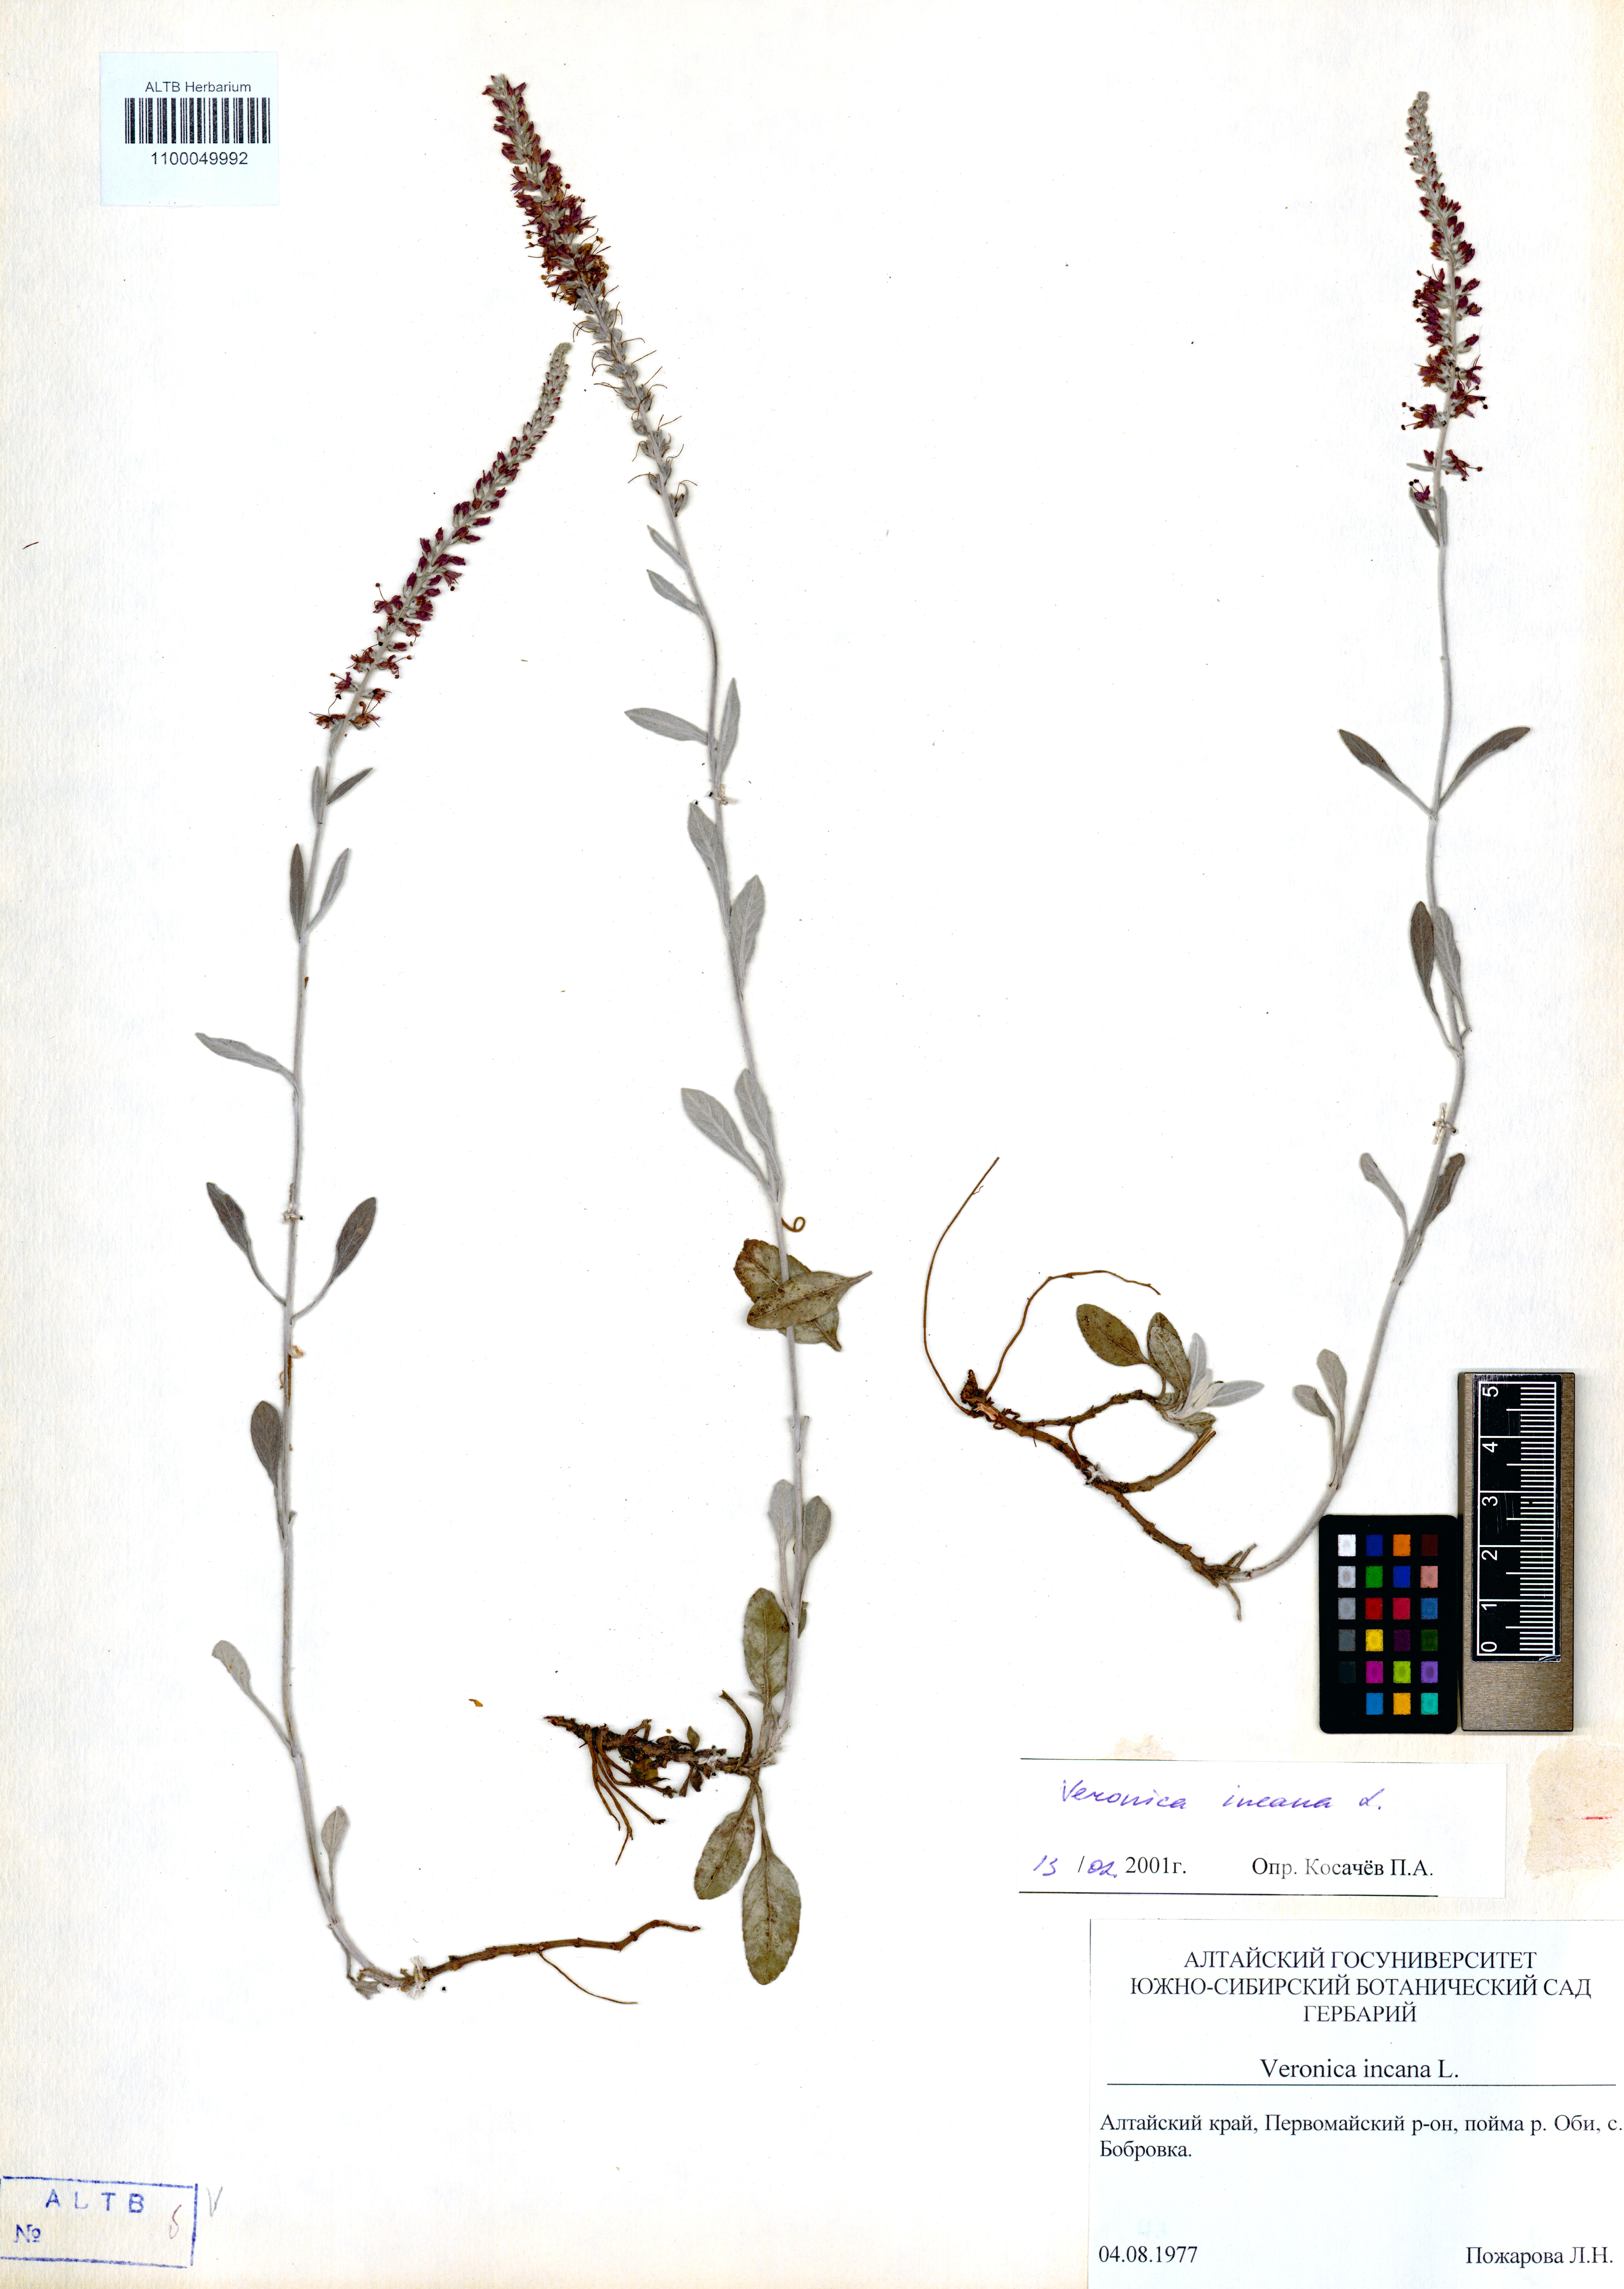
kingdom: Plantae
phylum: Tracheophyta
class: Magnoliopsida
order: Lamiales
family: Plantaginaceae
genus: Veronica
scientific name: Veronica incana
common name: Silver speedwell
